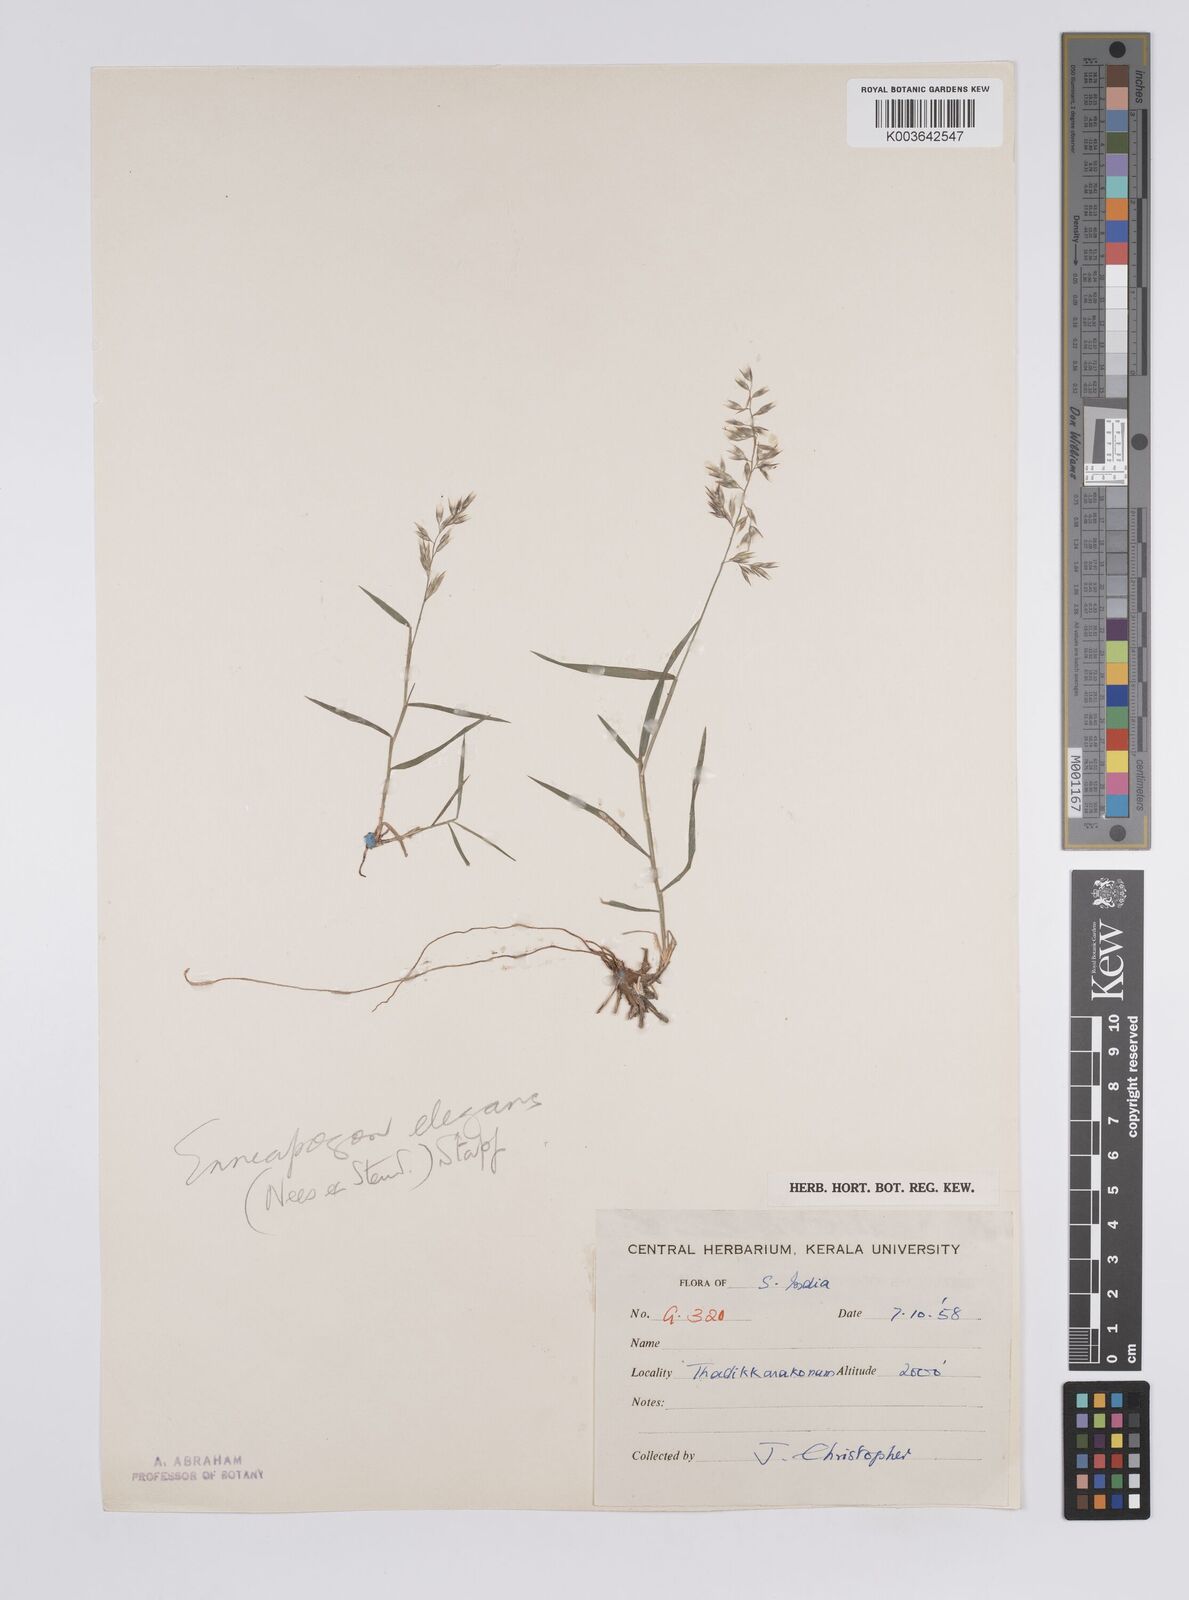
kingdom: Plantae
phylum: Tracheophyta
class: Liliopsida
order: Poales
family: Poaceae
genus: Enneapogon
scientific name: Enneapogon persicus
